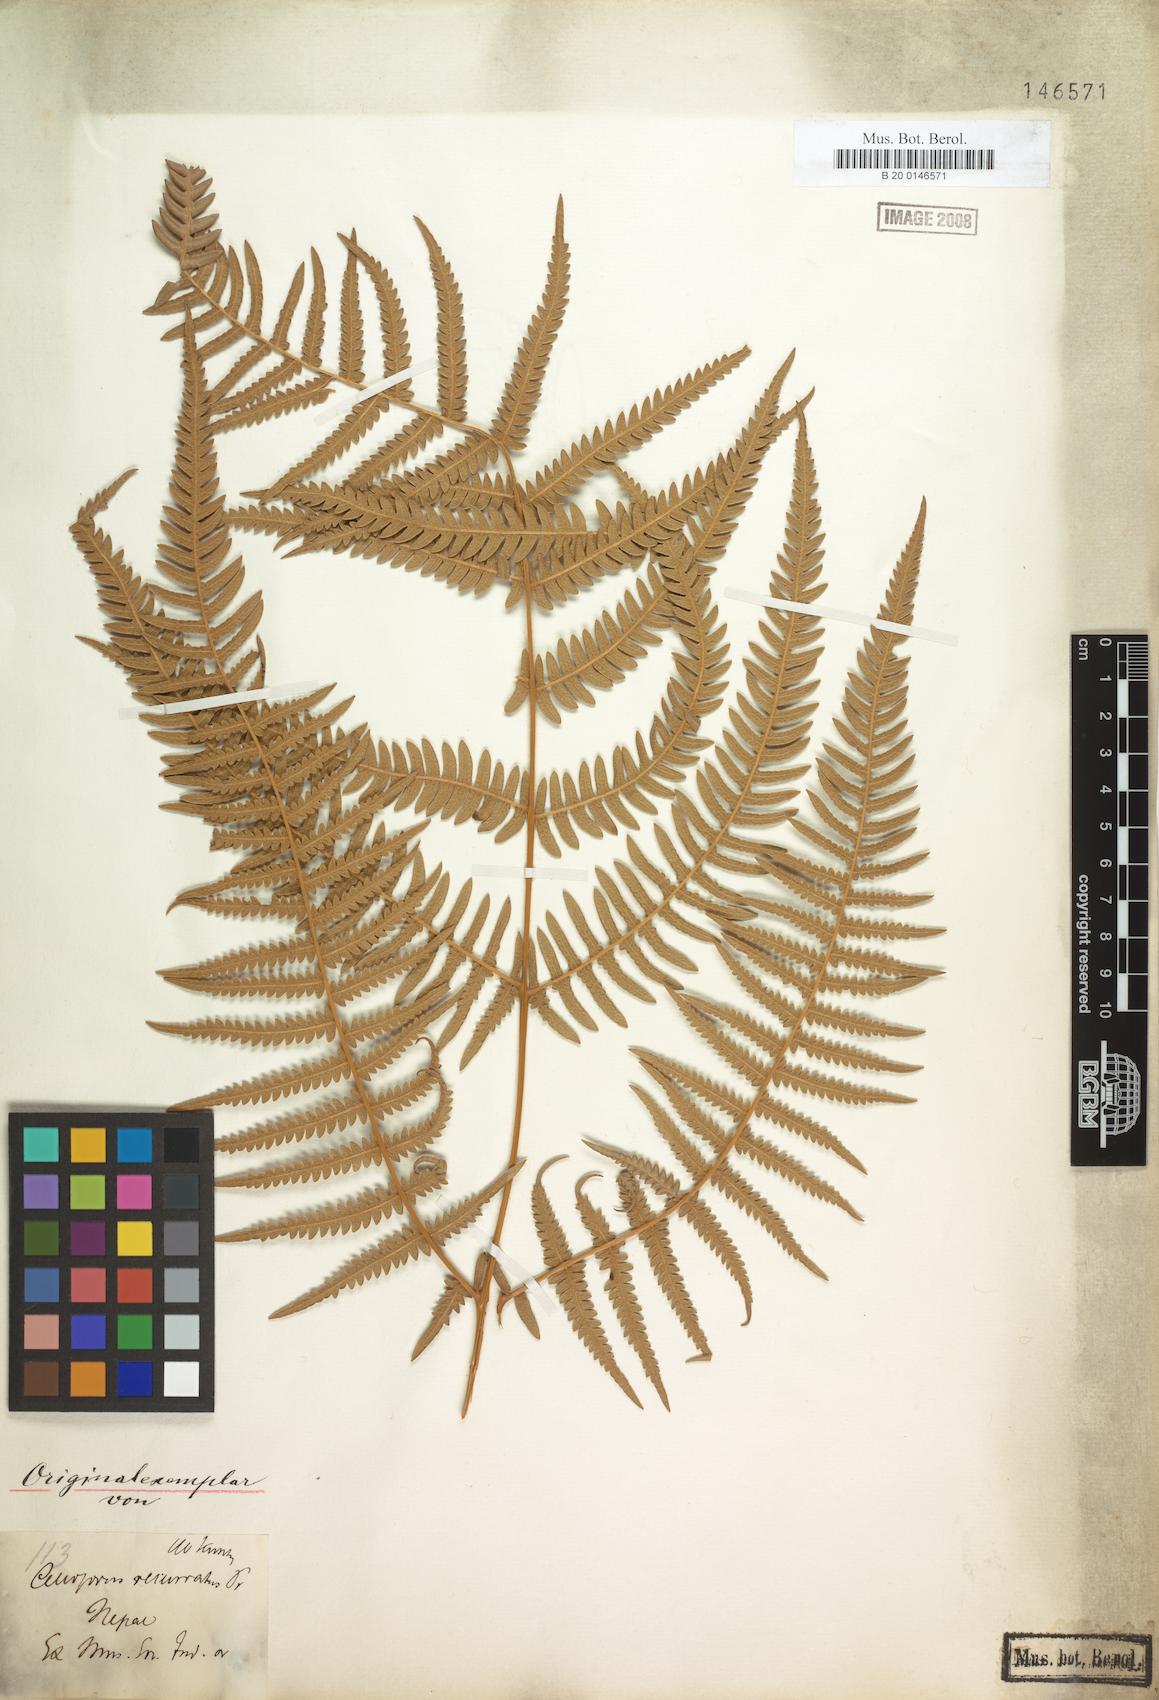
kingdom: Plantae
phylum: Tracheophyta
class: Polypodiopsida
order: Polypodiales
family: Dennstaedtiaceae
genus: Pteridium
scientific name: Pteridium aquilinum
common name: Bracken
